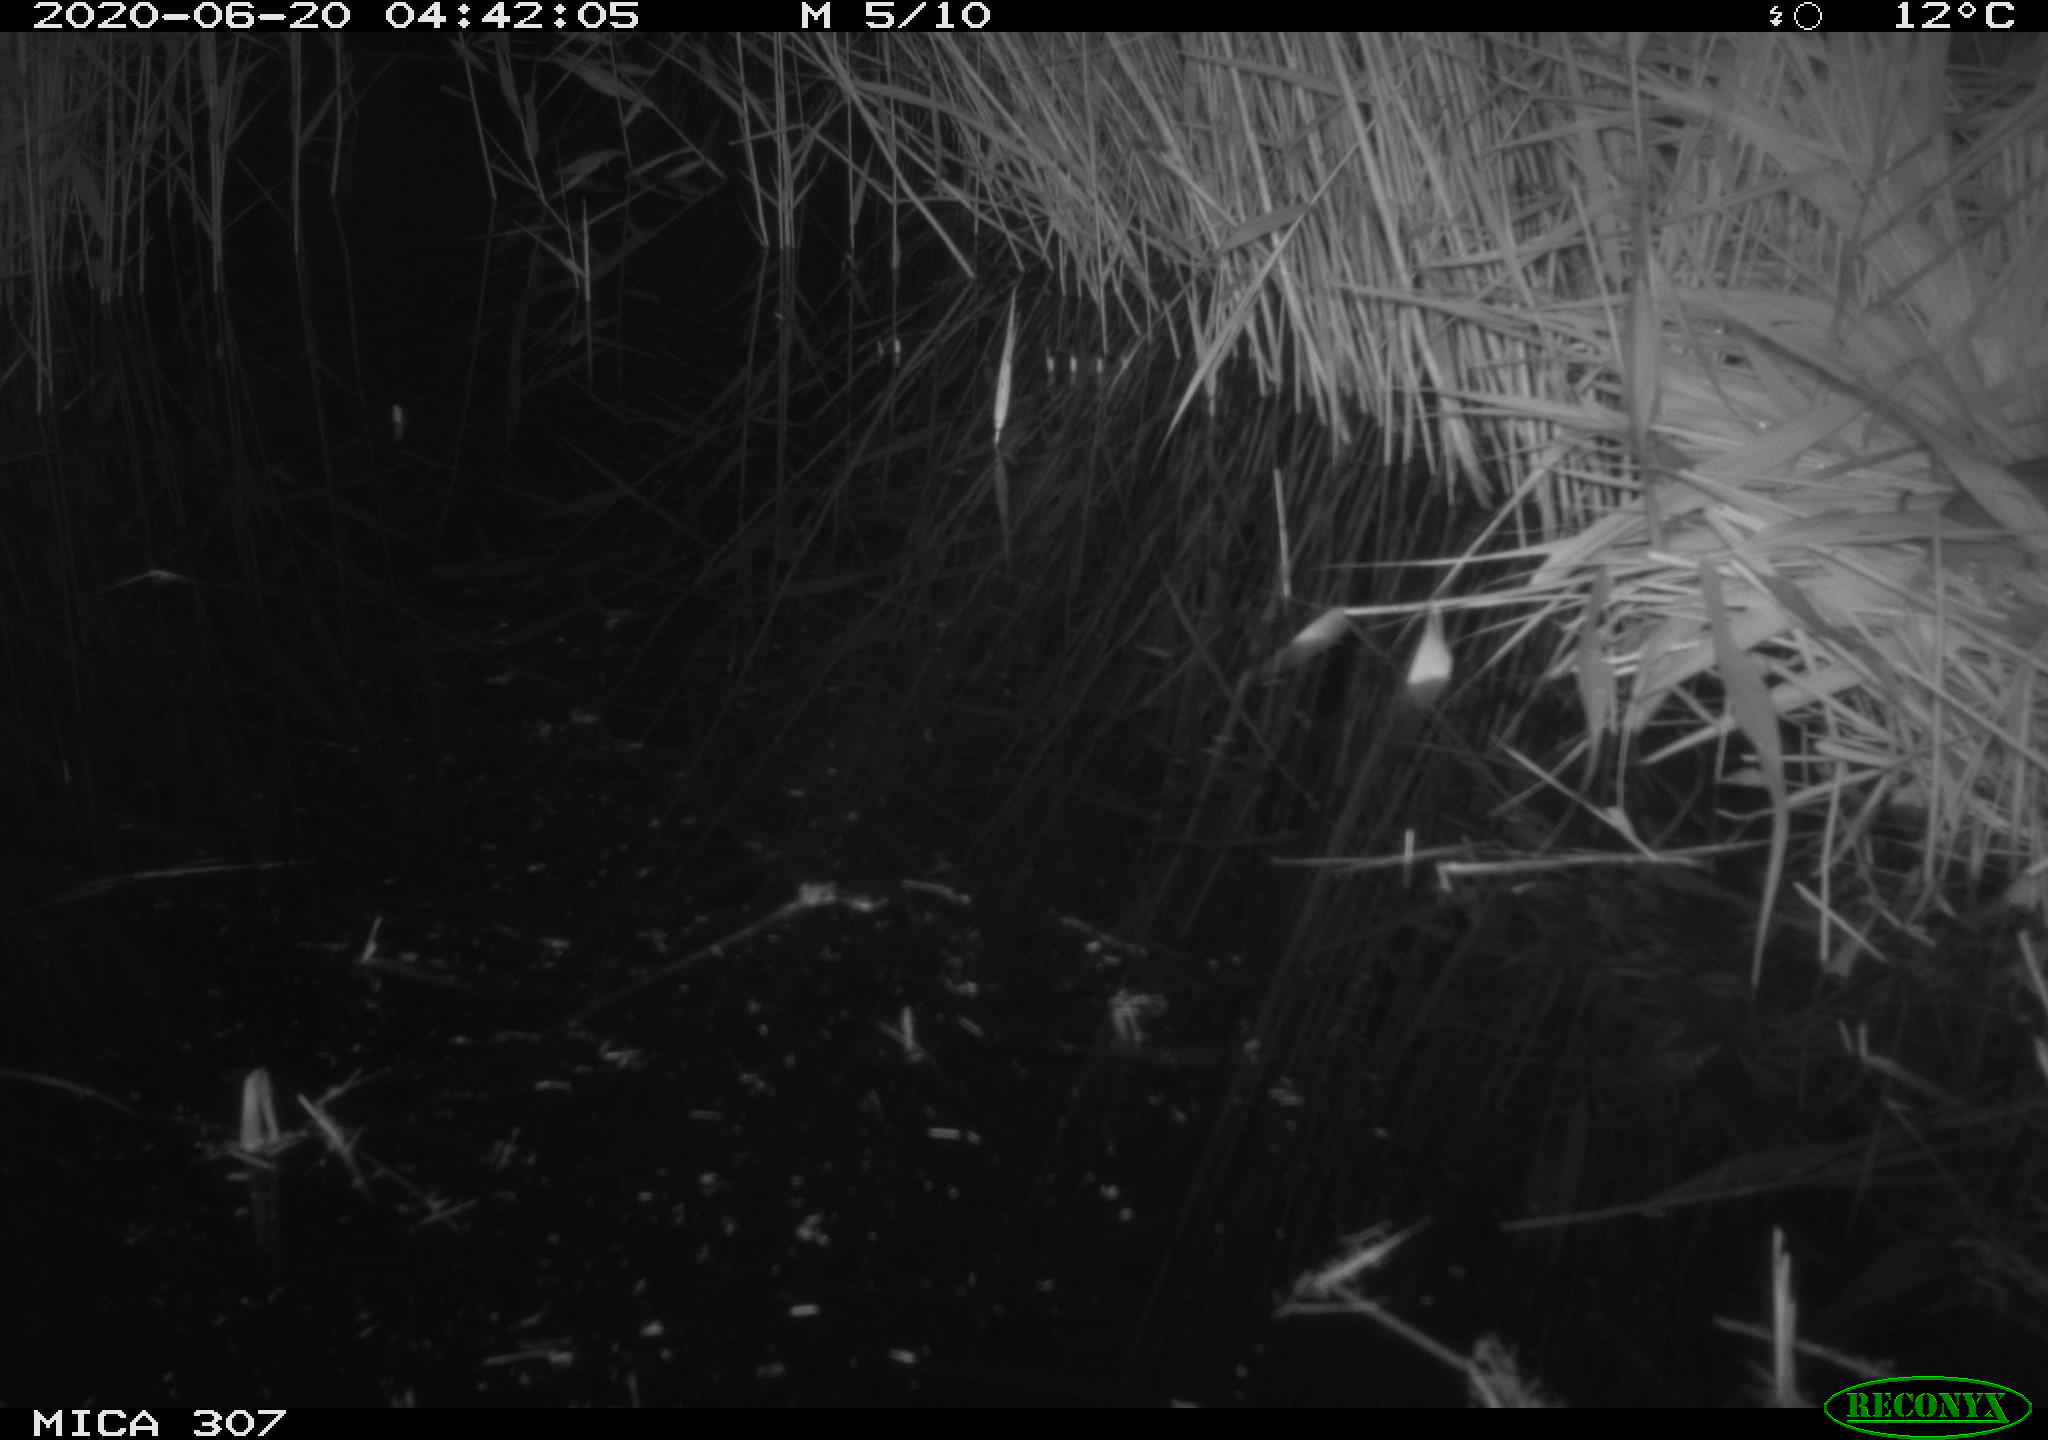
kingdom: Animalia
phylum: Chordata
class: Mammalia
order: Rodentia
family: Muridae
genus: Rattus
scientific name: Rattus norvegicus
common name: Brown rat
